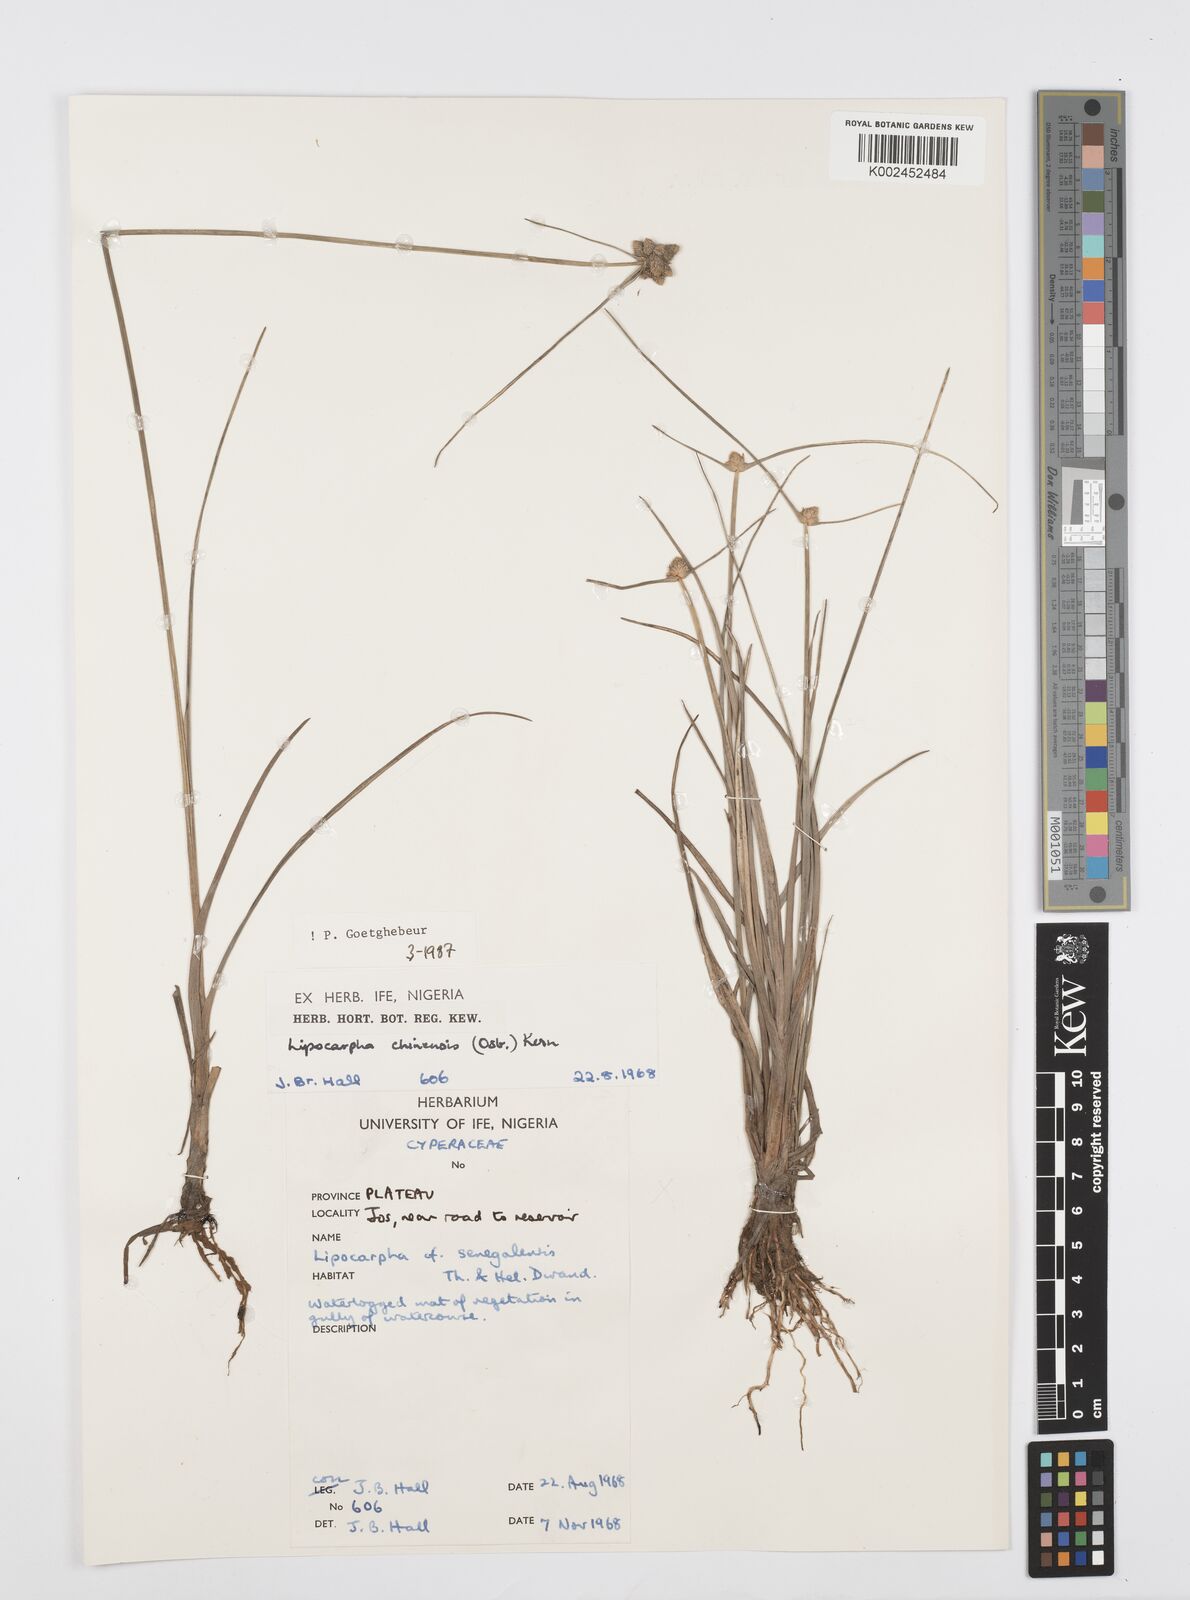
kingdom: Plantae
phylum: Tracheophyta
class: Liliopsida
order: Poales
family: Cyperaceae
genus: Cyperus
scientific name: Cyperus albescens
